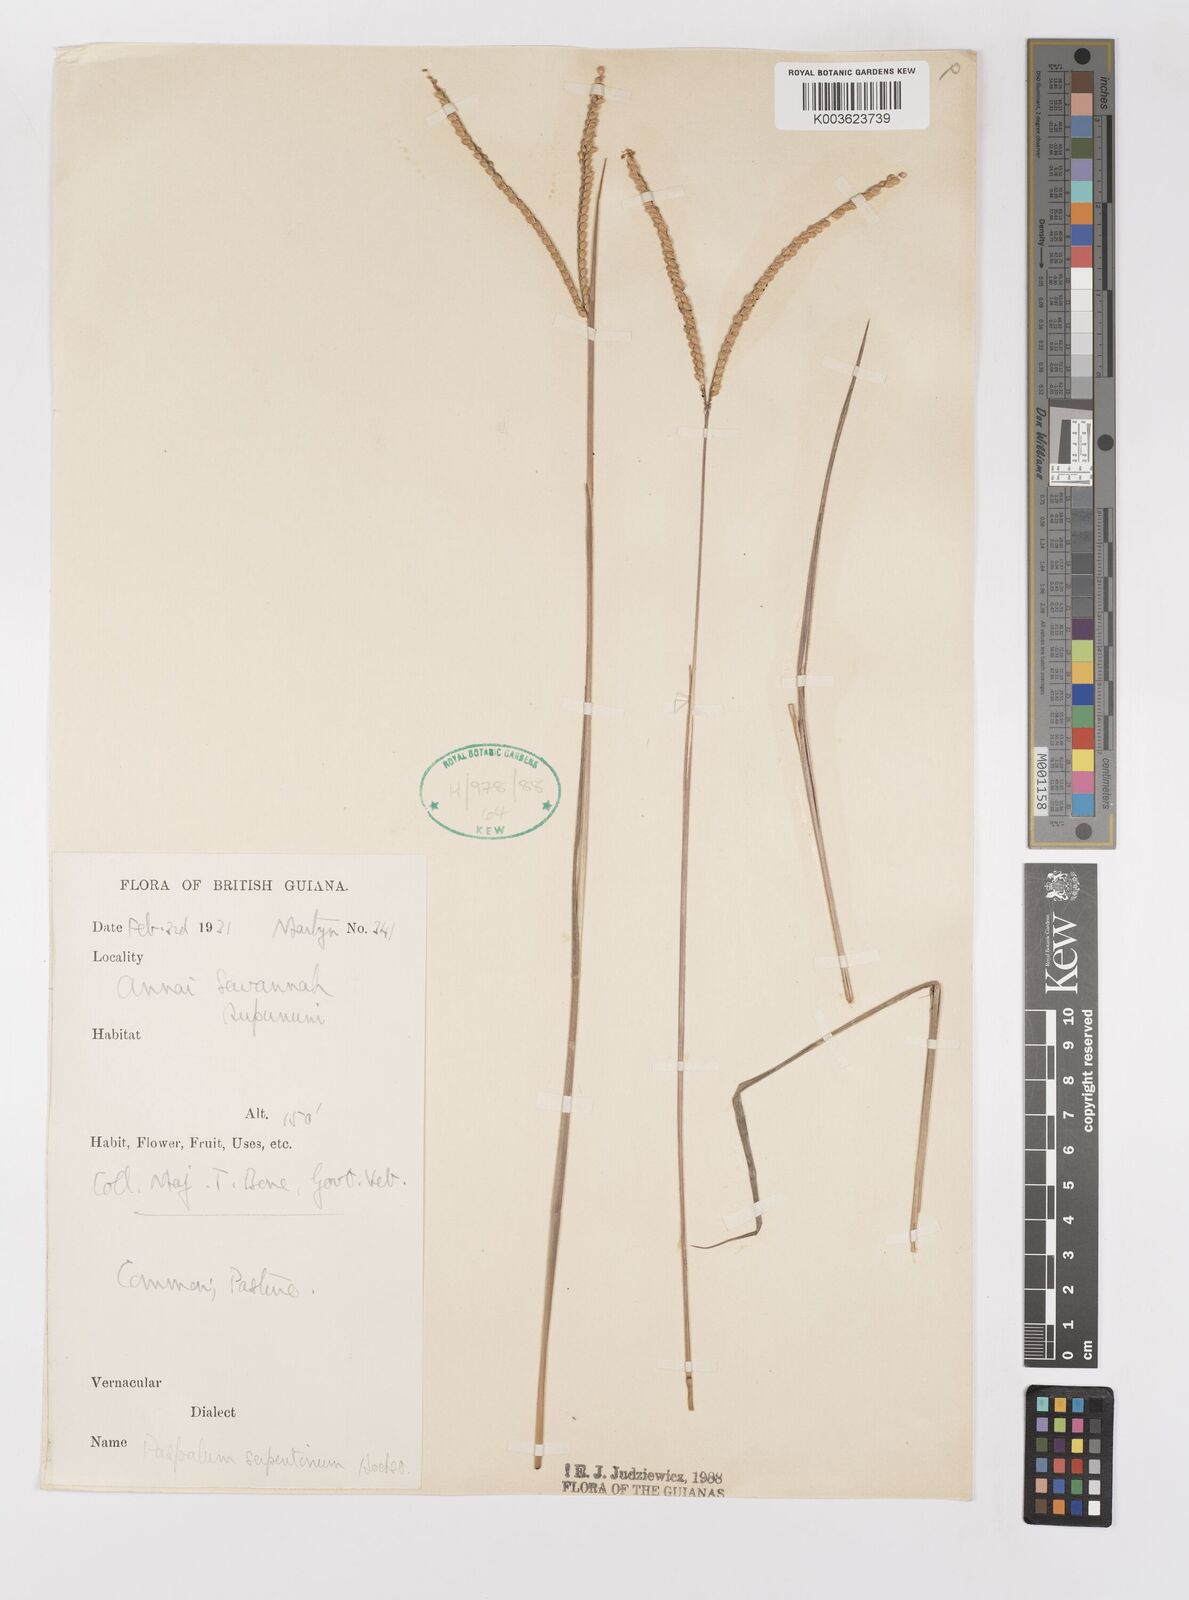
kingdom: Plantae
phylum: Tracheophyta
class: Liliopsida
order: Poales
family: Poaceae
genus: Paspalum
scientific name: Paspalum serpentinum
